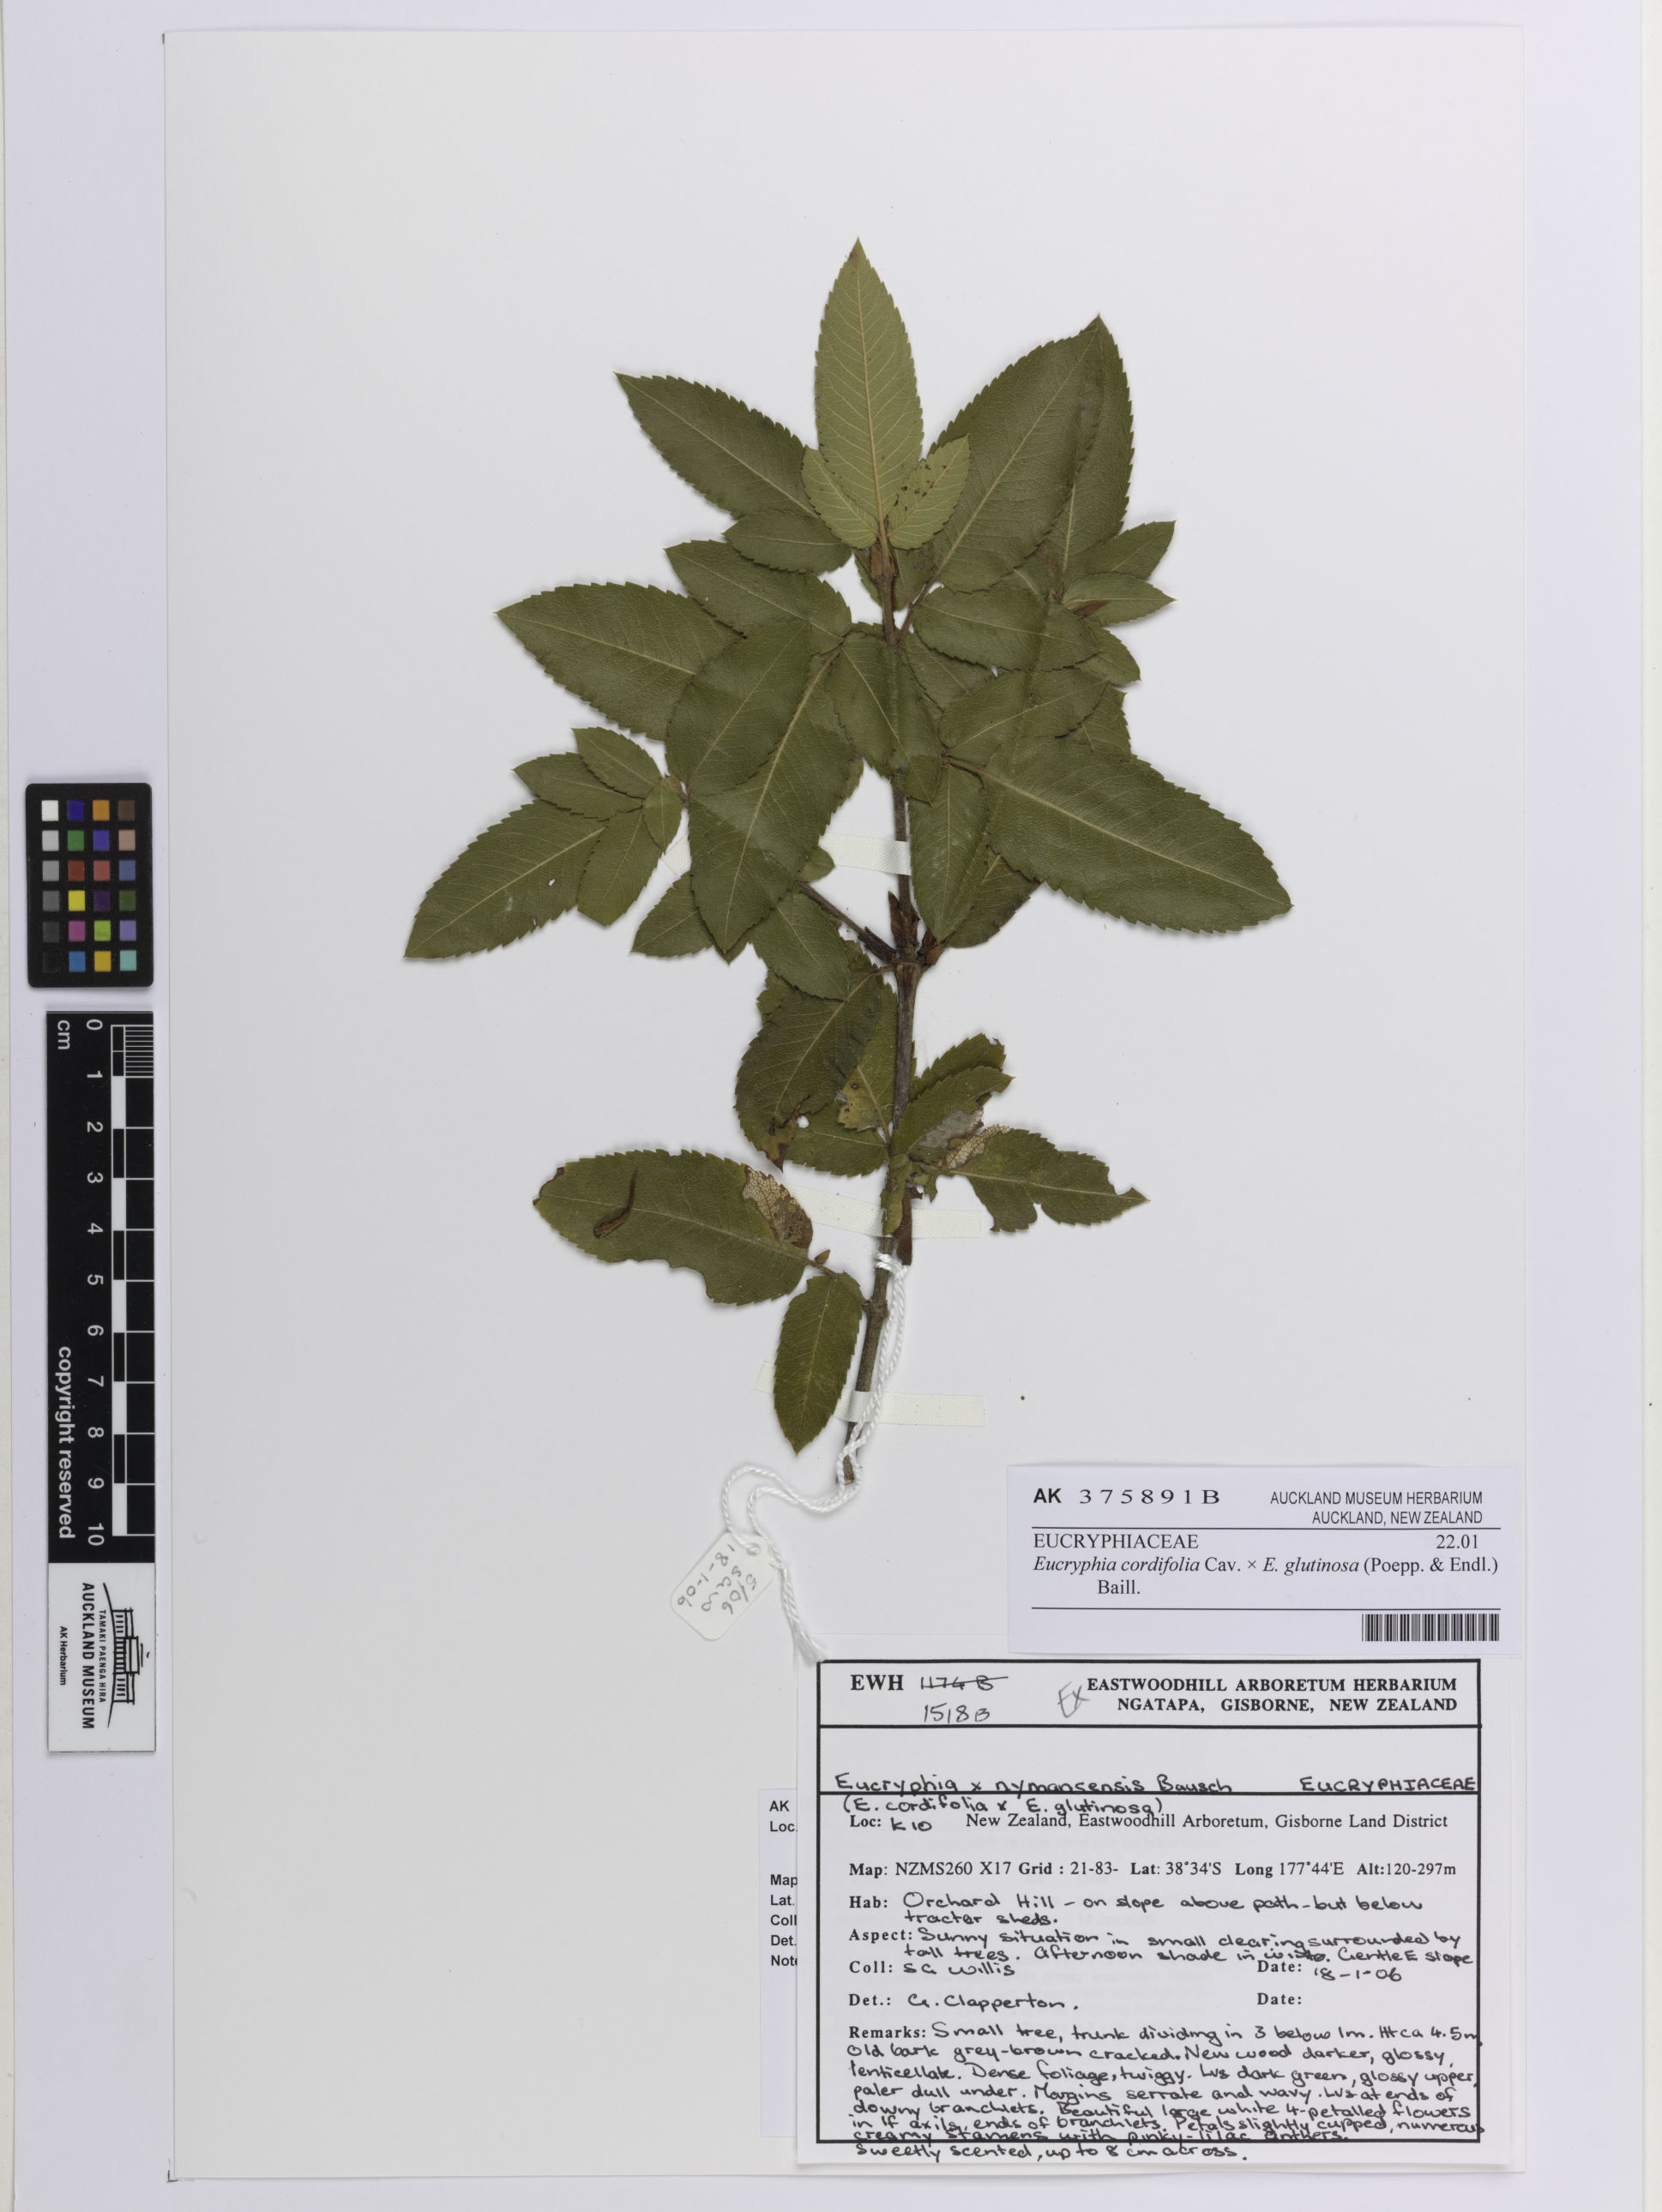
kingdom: Plantae
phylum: Tracheophyta
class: Magnoliopsida
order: Oxalidales
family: Cunoniaceae
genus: Eucryphia
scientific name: Eucryphia
